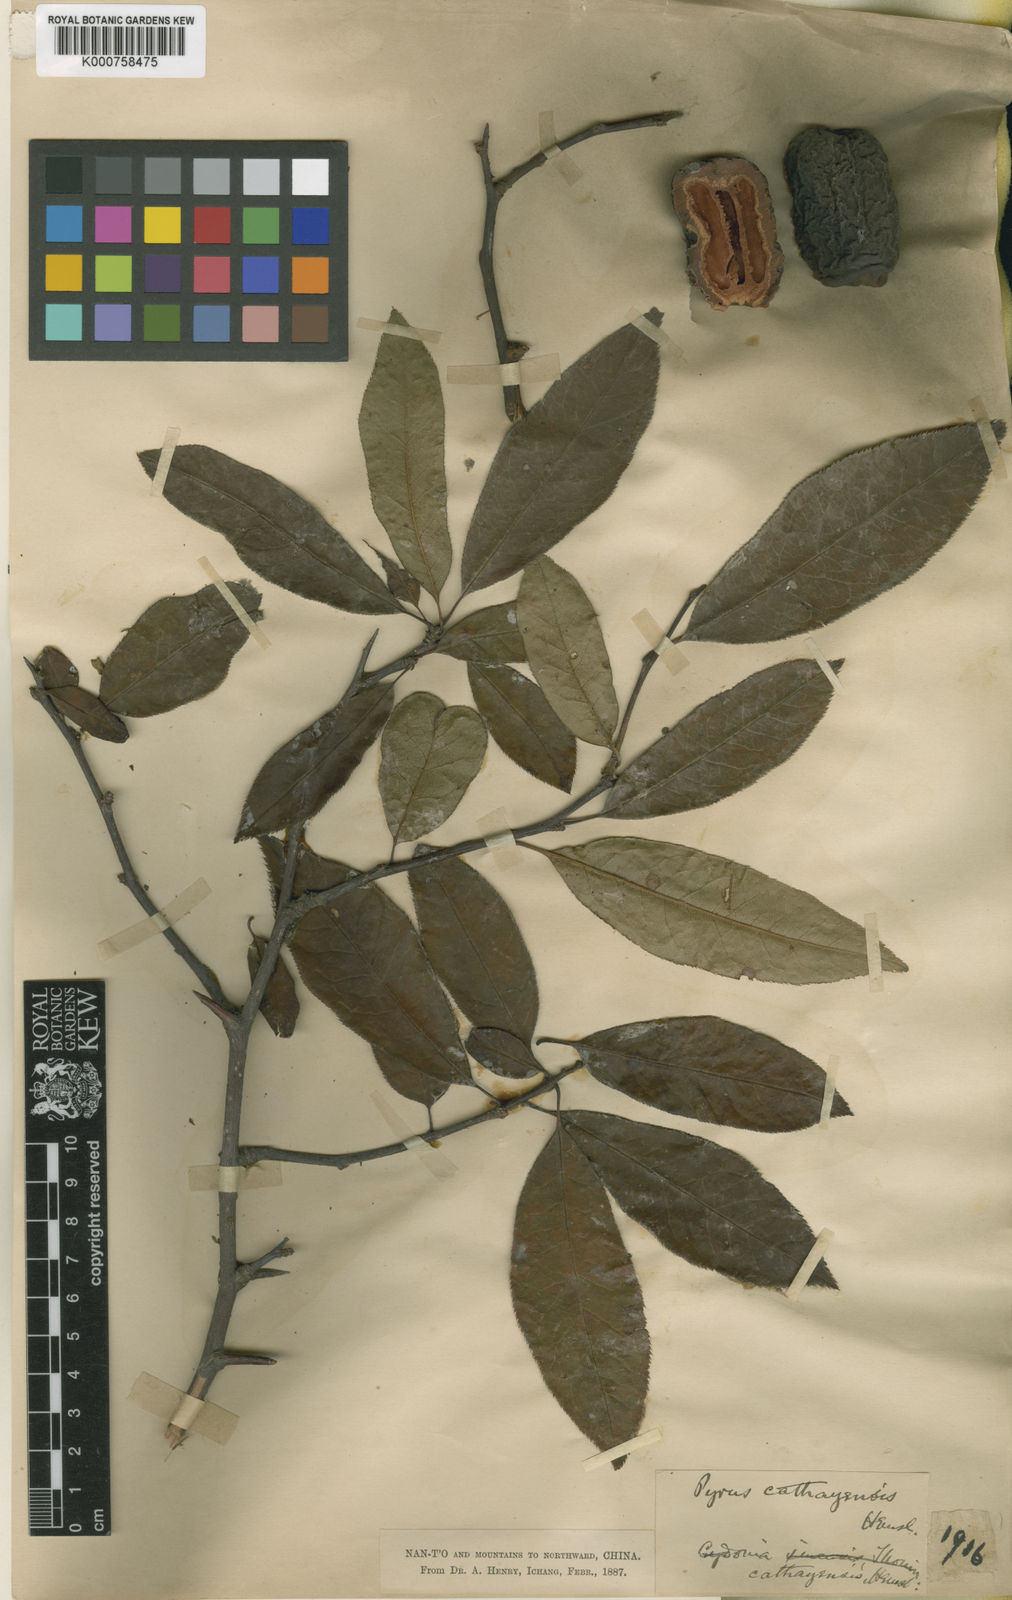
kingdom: Plantae
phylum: Tracheophyta
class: Magnoliopsida
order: Rosales
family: Rosaceae
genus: Chaenomeles
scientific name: Chaenomeles
